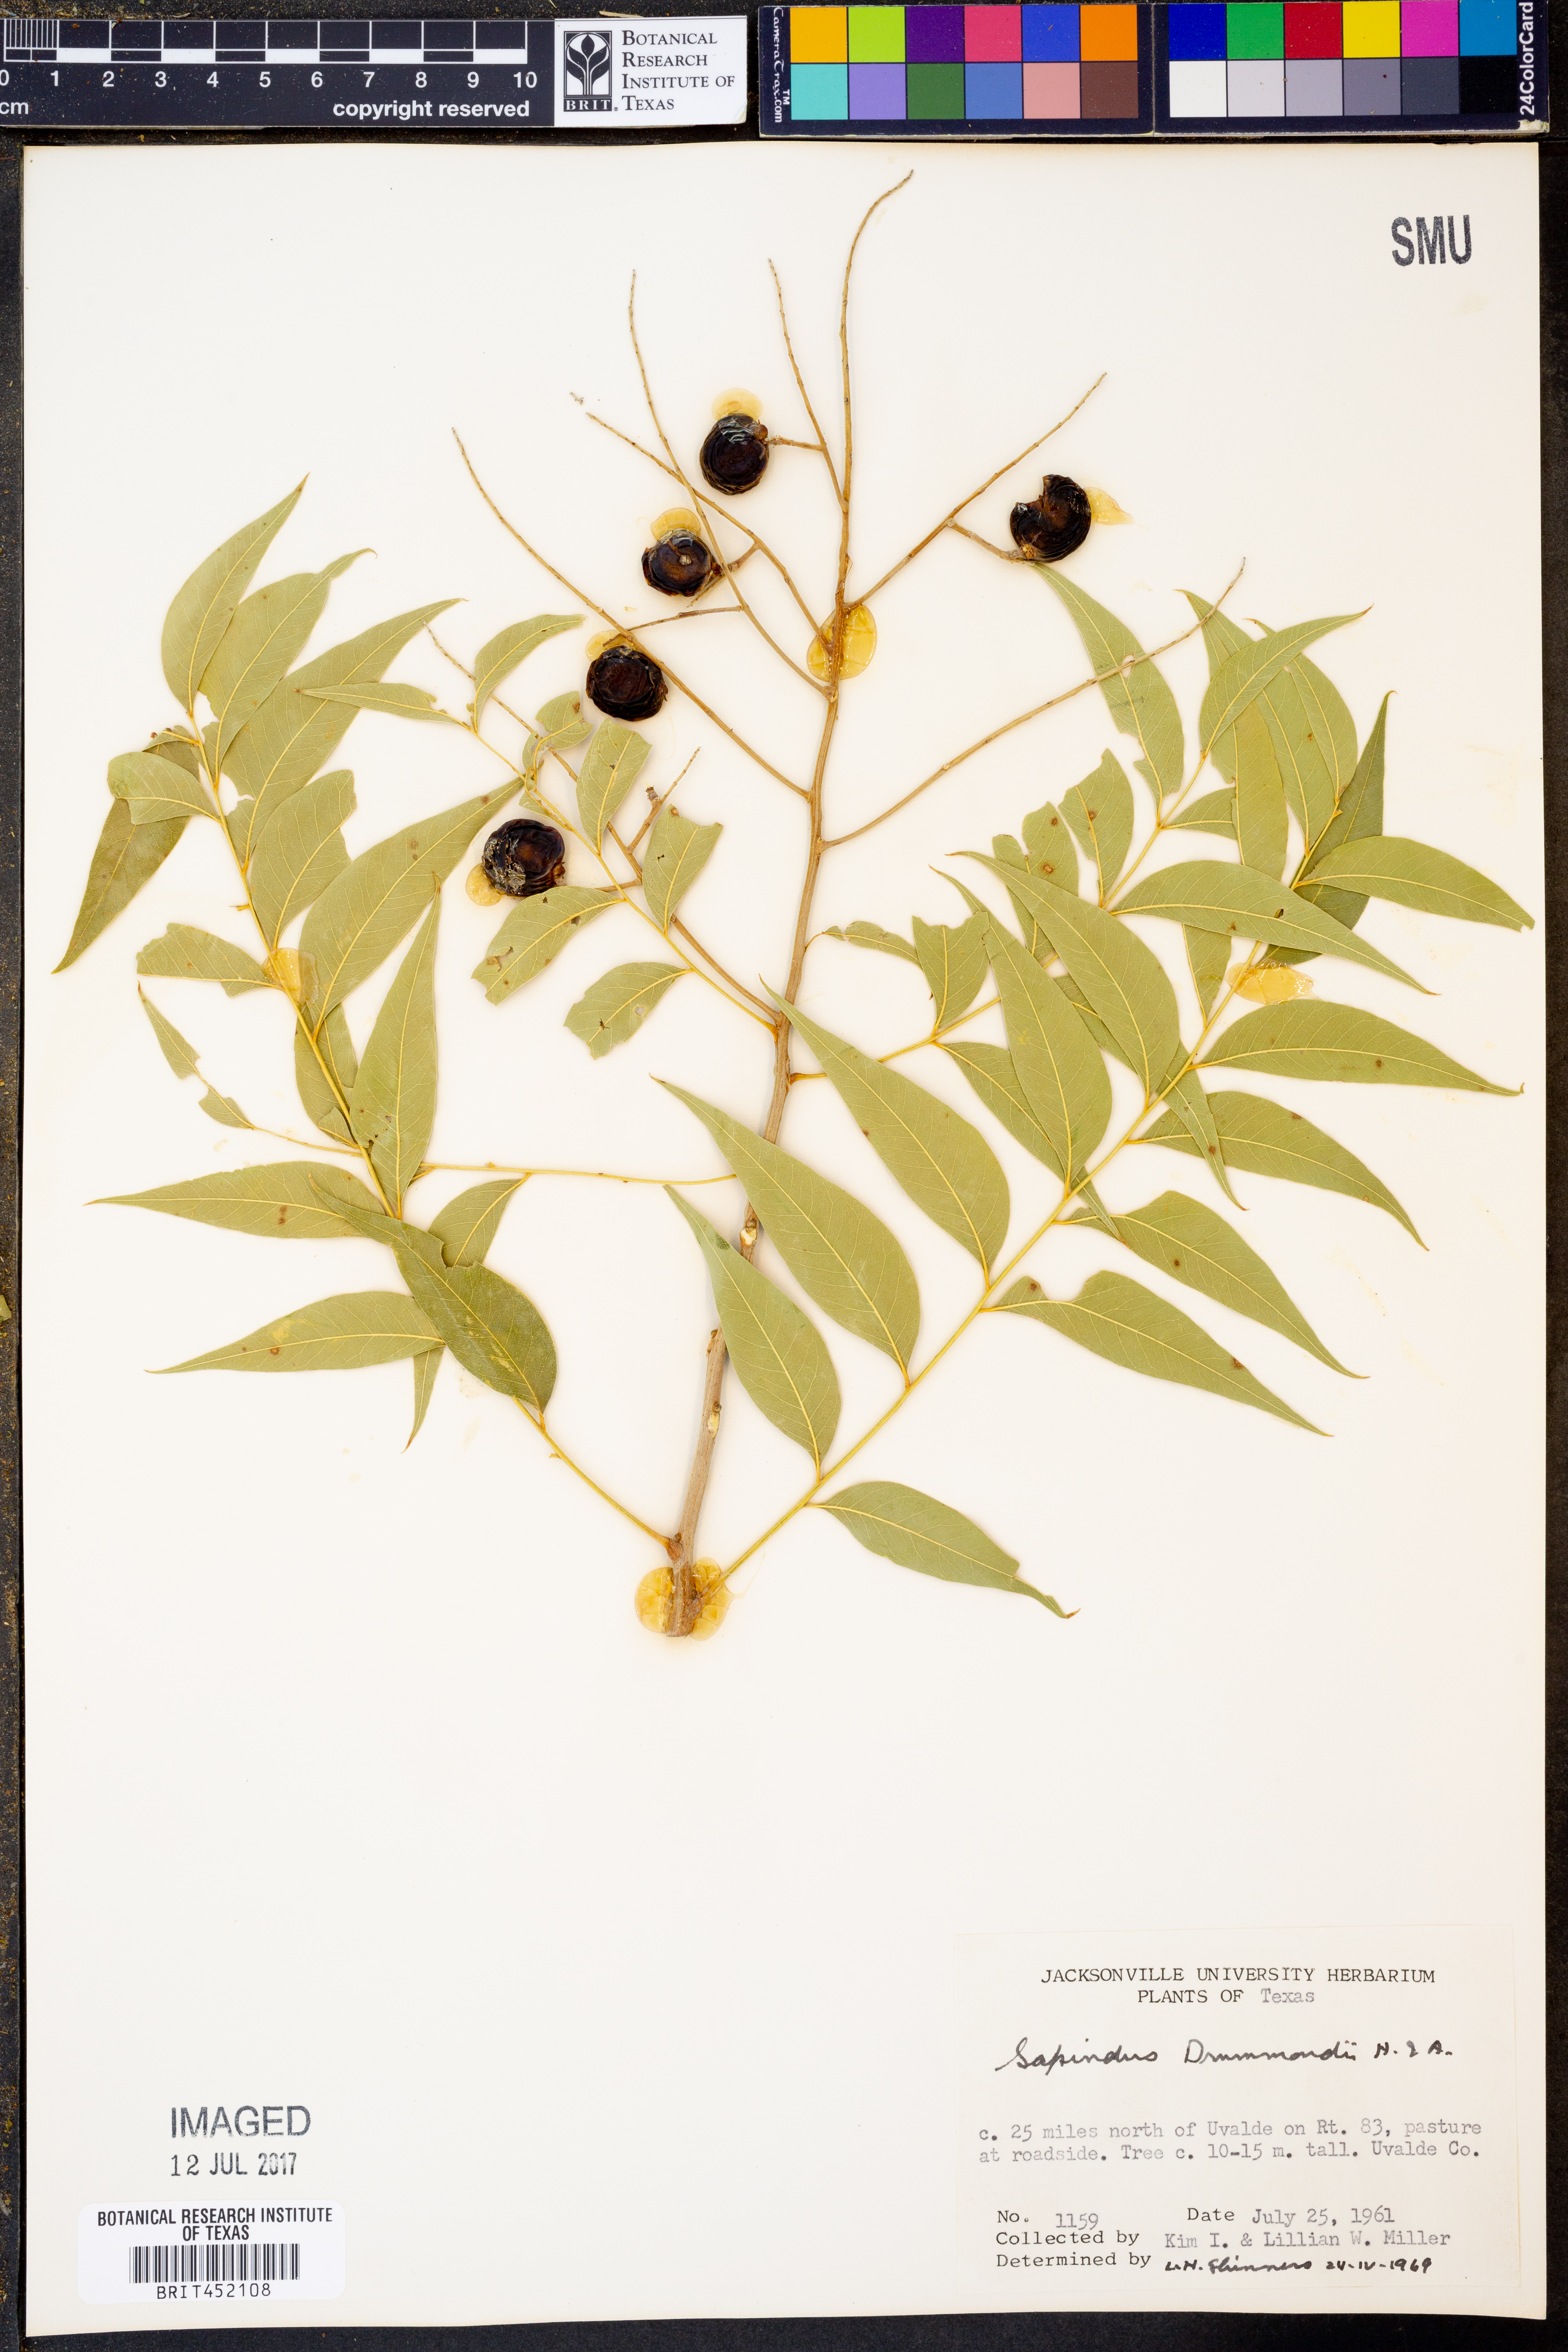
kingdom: Plantae
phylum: Tracheophyta
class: Magnoliopsida
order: Sapindales
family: Sapindaceae
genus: Sapindus
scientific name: Sapindus drummondii
